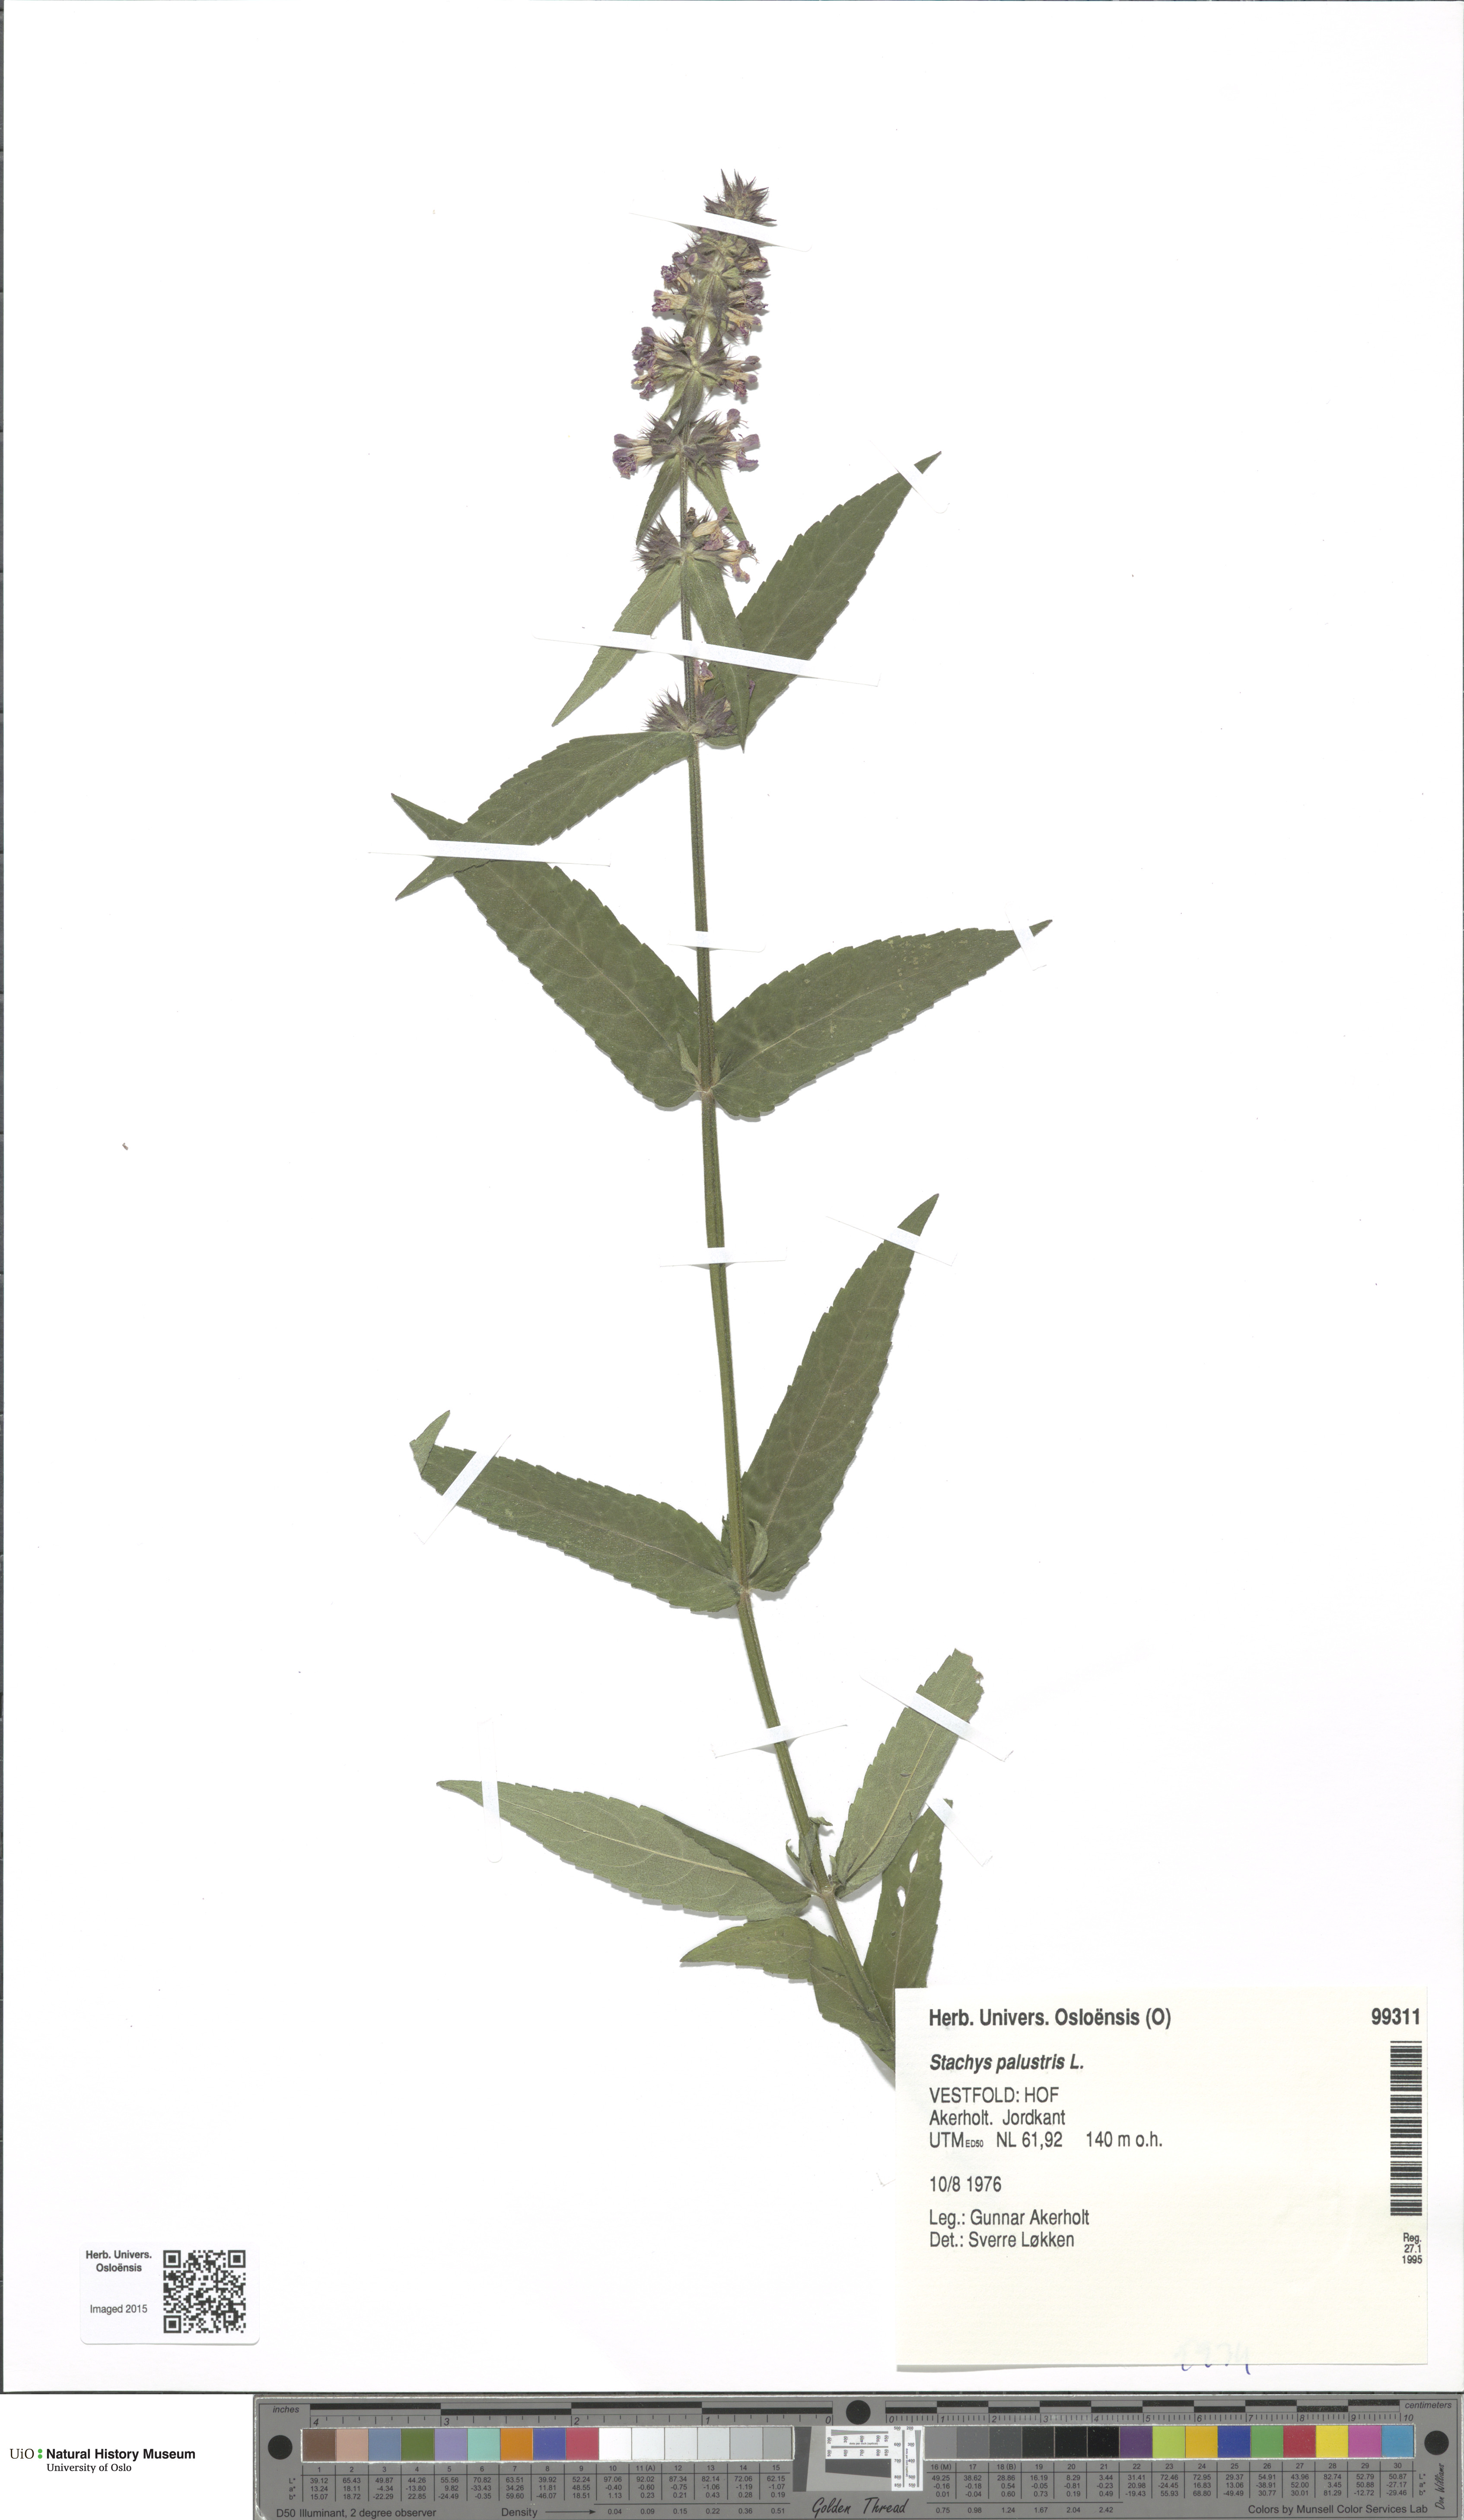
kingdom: Plantae
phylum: Tracheophyta
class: Magnoliopsida
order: Lamiales
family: Lamiaceae
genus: Stachys
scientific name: Stachys palustris
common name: Marsh woundwort
